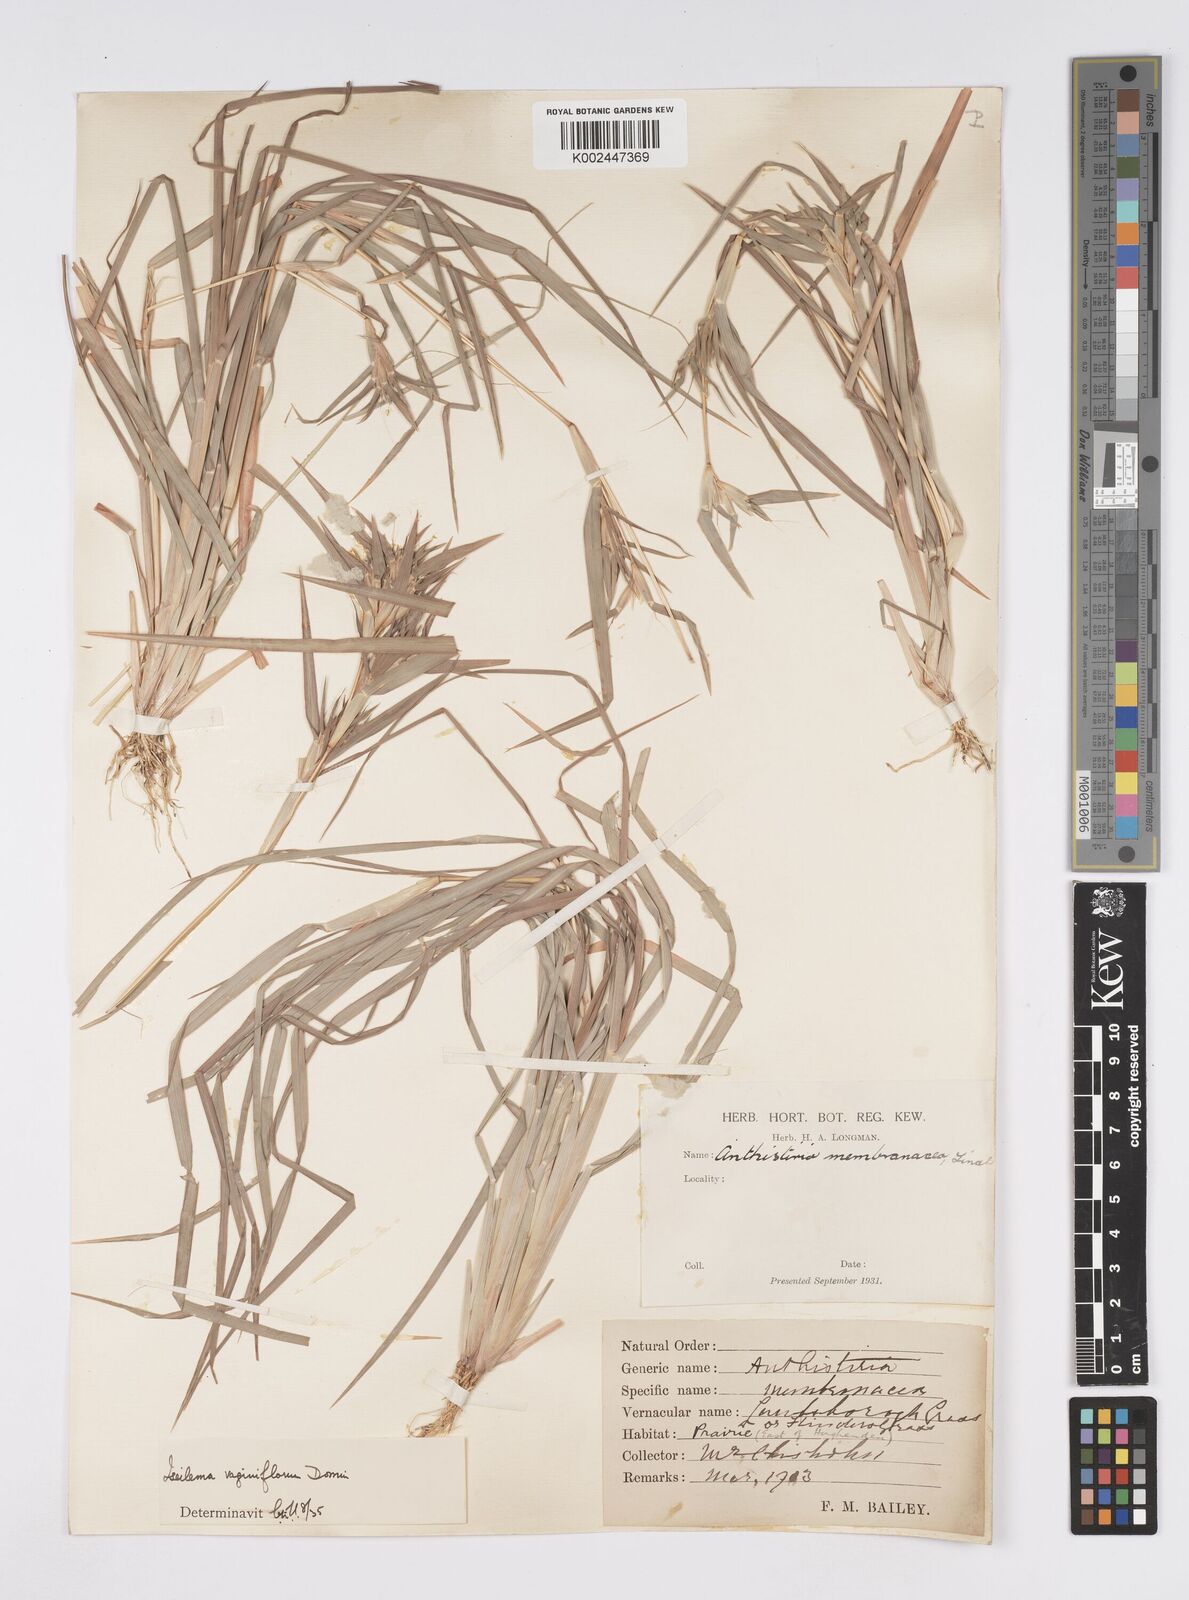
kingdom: Plantae
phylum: Tracheophyta
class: Liliopsida
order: Poales
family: Poaceae
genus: Iseilema
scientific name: Iseilema vaginiflorum
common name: Red flinders grass
